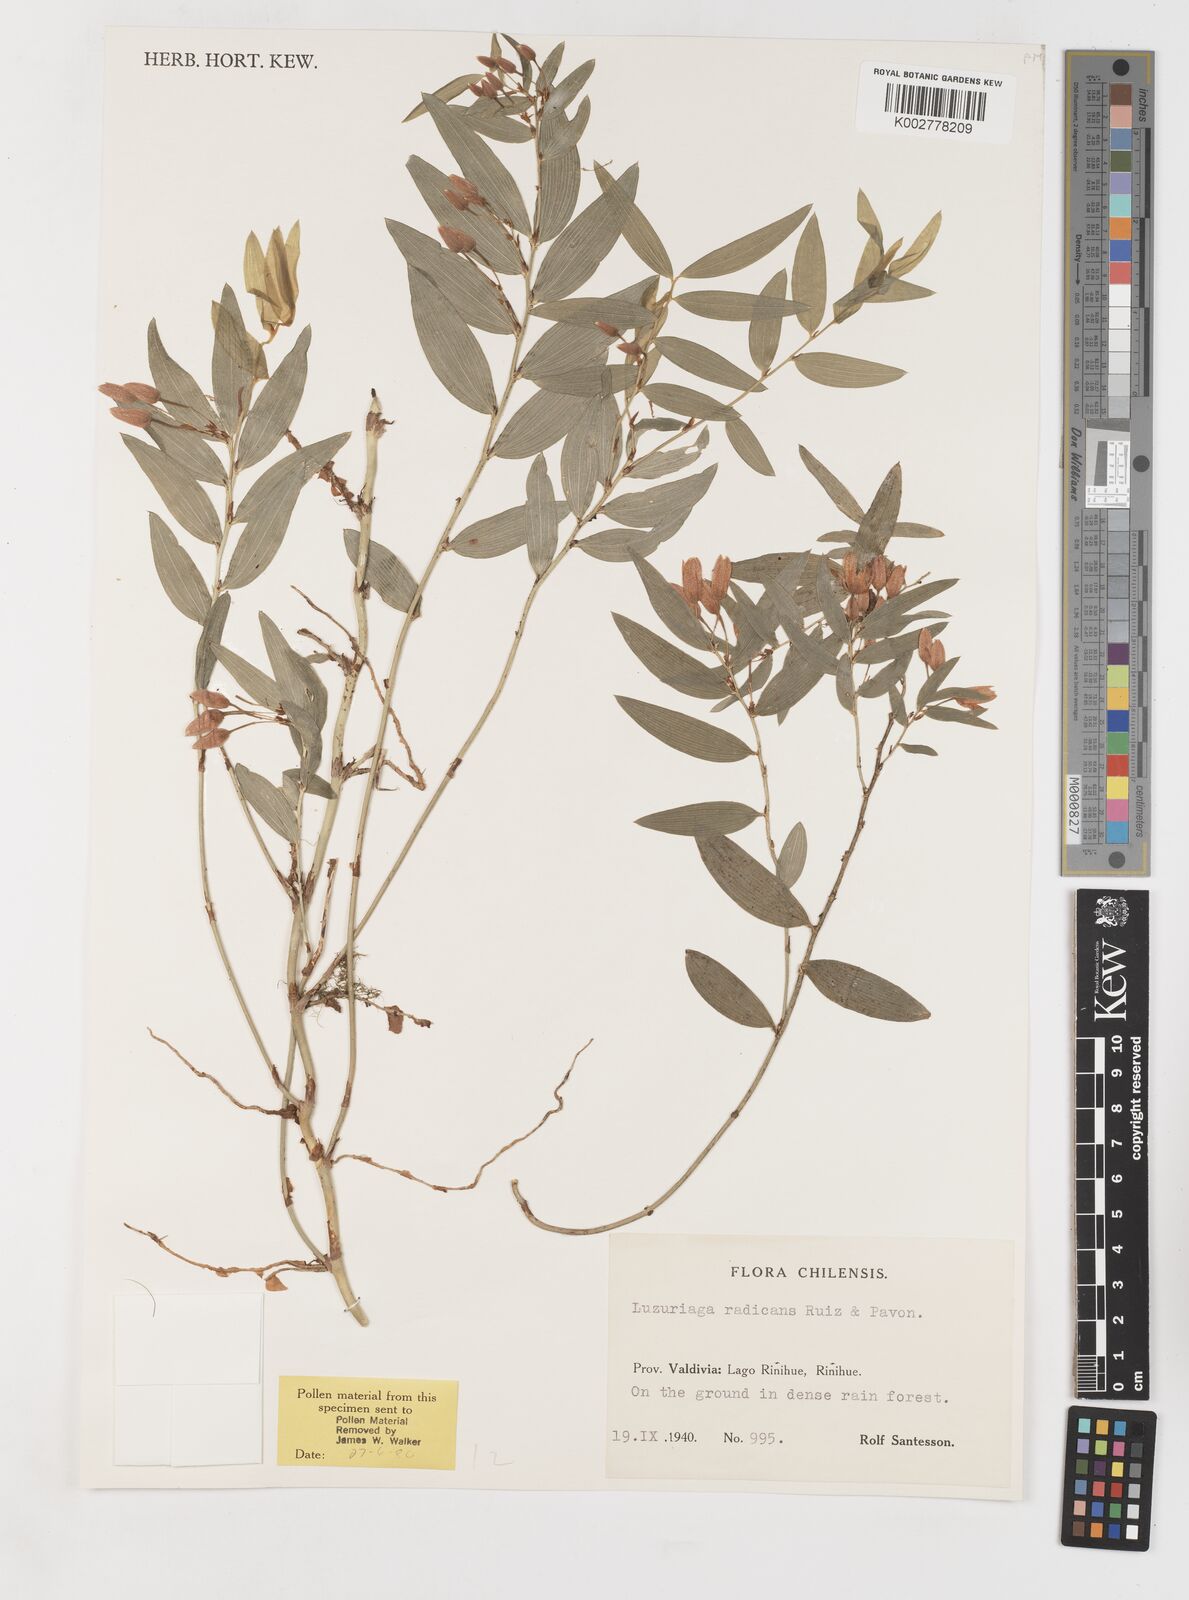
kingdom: Plantae
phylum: Tracheophyta
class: Liliopsida
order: Liliales
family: Alstroemeriaceae
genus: Luzuriaga
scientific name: Luzuriaga radicans
